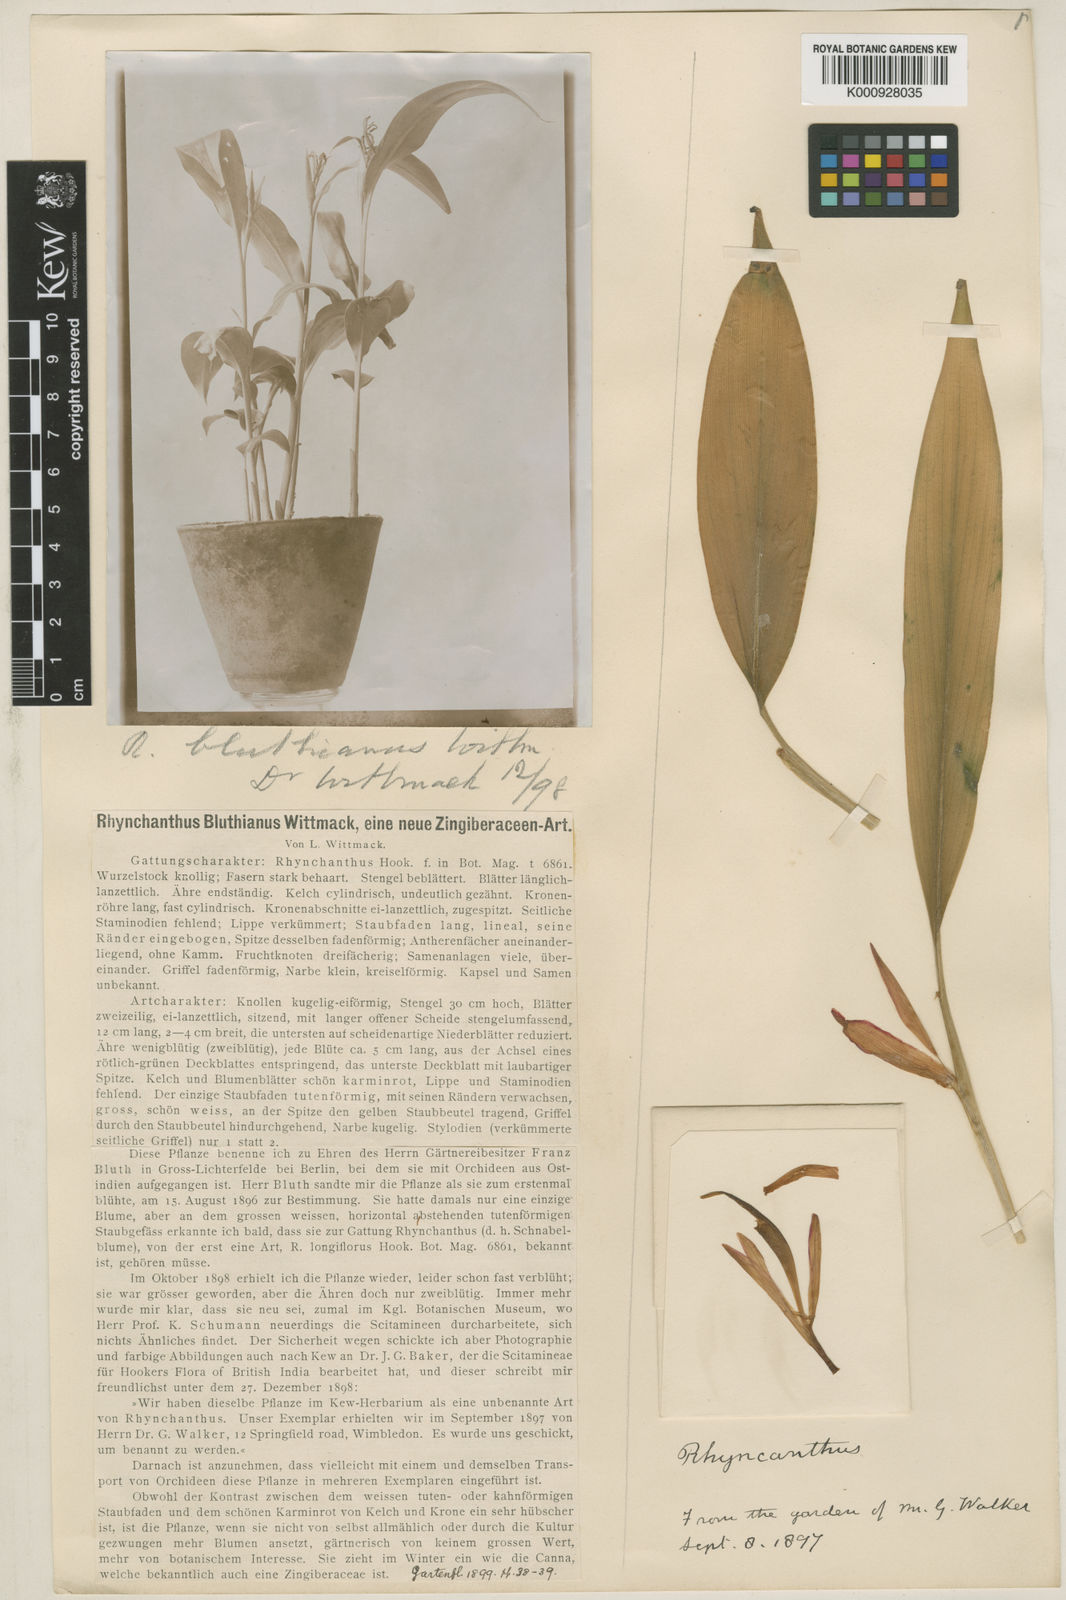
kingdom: Plantae
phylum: Tracheophyta
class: Liliopsida
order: Zingiberales
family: Zingiberaceae
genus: Rhynchanthus
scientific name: Rhynchanthus bluthianus
